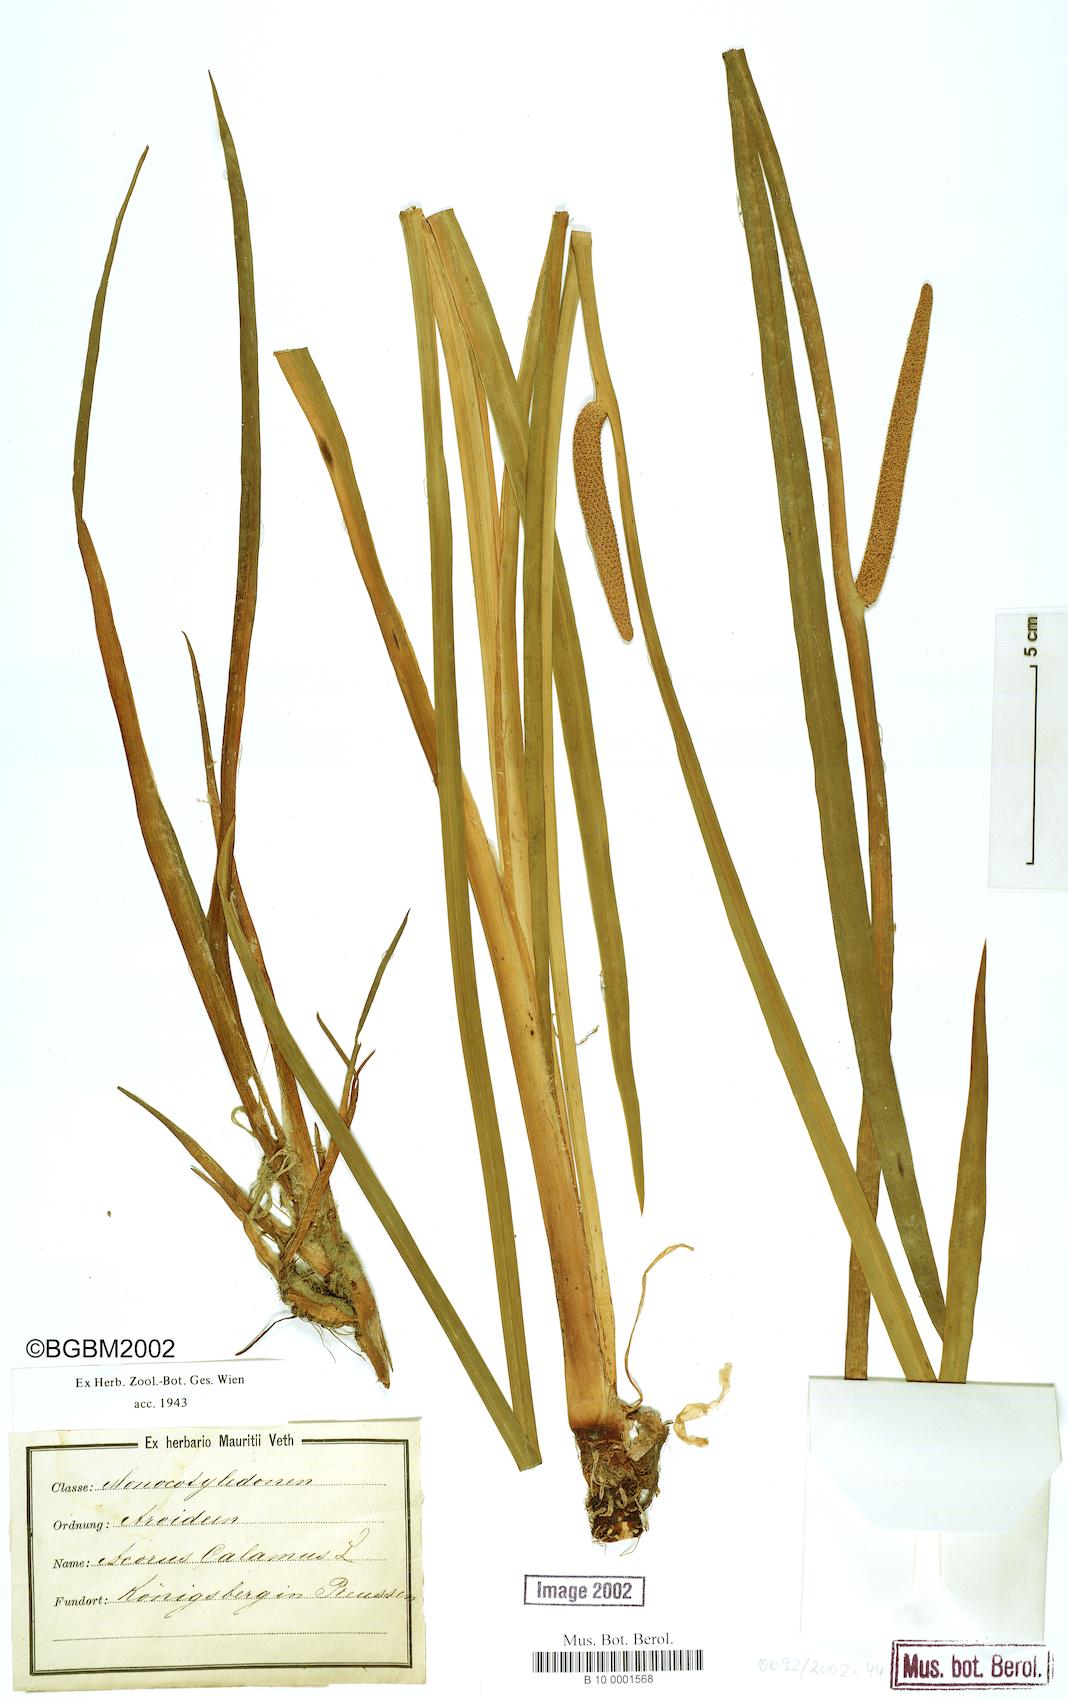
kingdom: Plantae
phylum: Tracheophyta
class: Liliopsida
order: Acorales
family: Acoraceae
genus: Acorus
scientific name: Acorus calamus
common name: Sweet-flag
